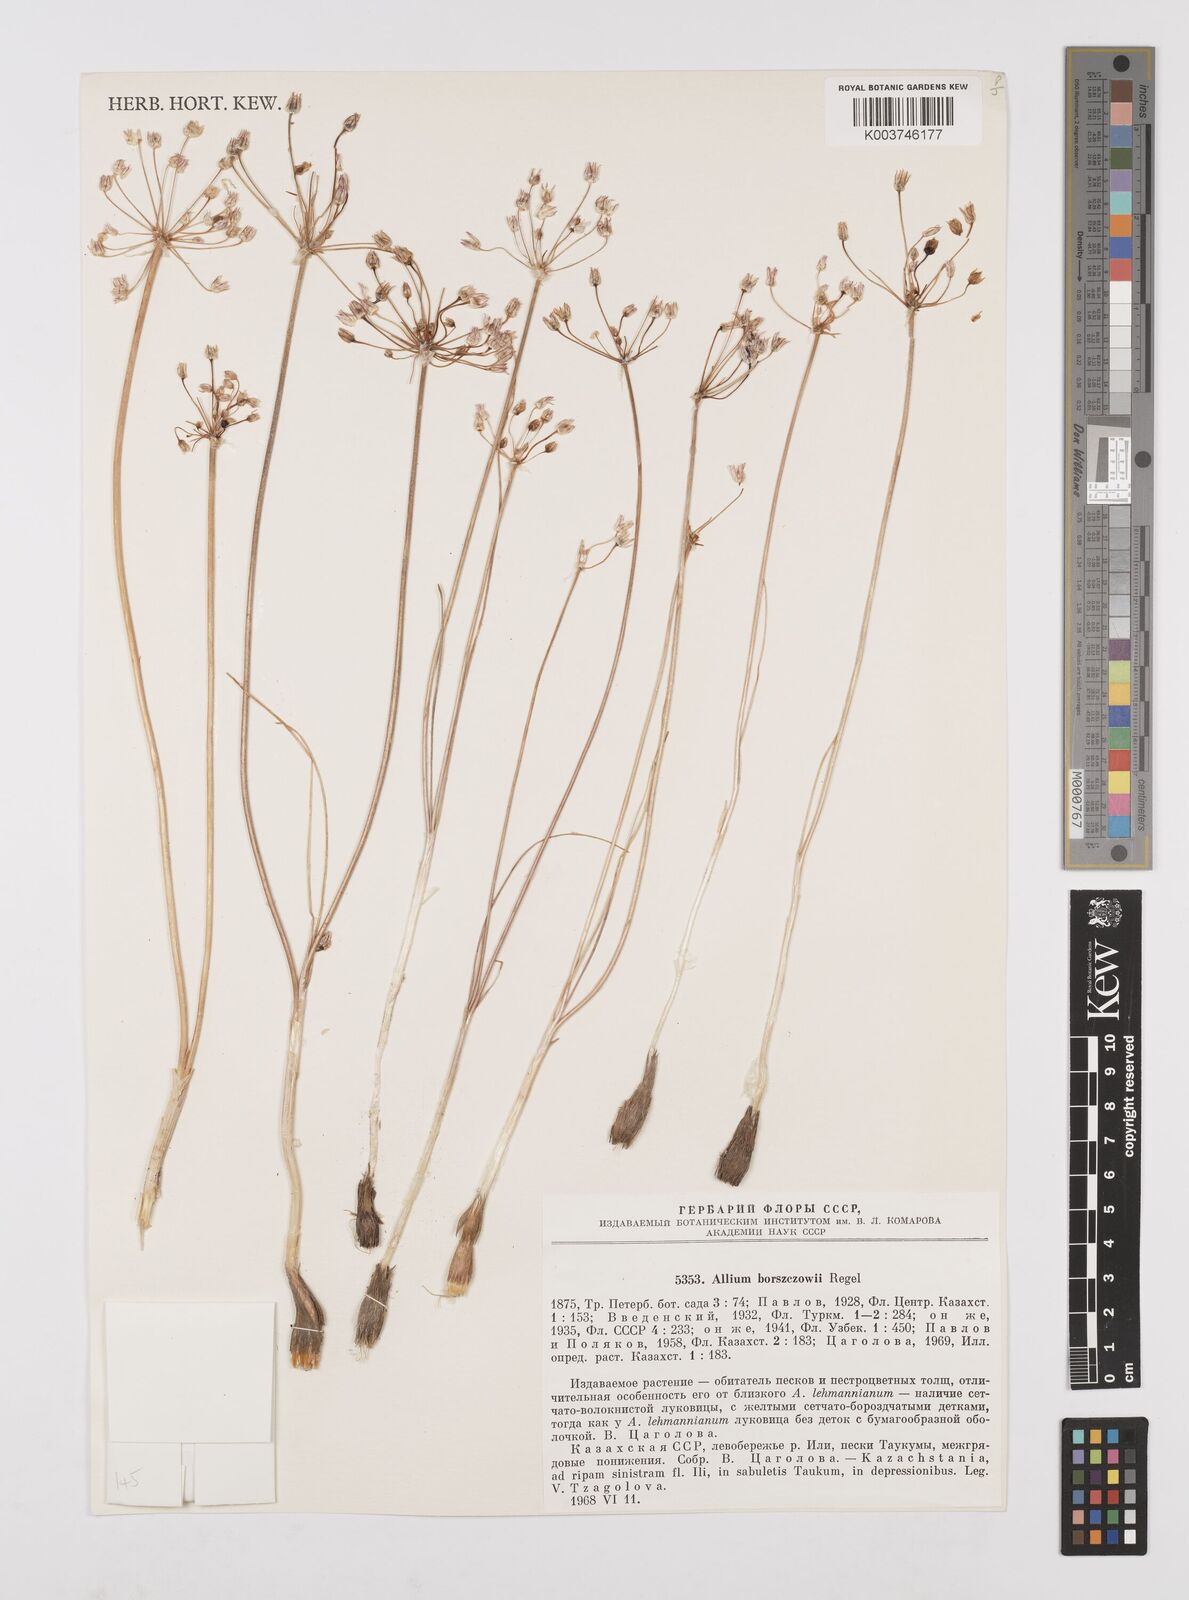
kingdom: Plantae
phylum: Tracheophyta
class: Liliopsida
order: Asparagales
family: Amaryllidaceae
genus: Allium
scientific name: Allium borszczowii
